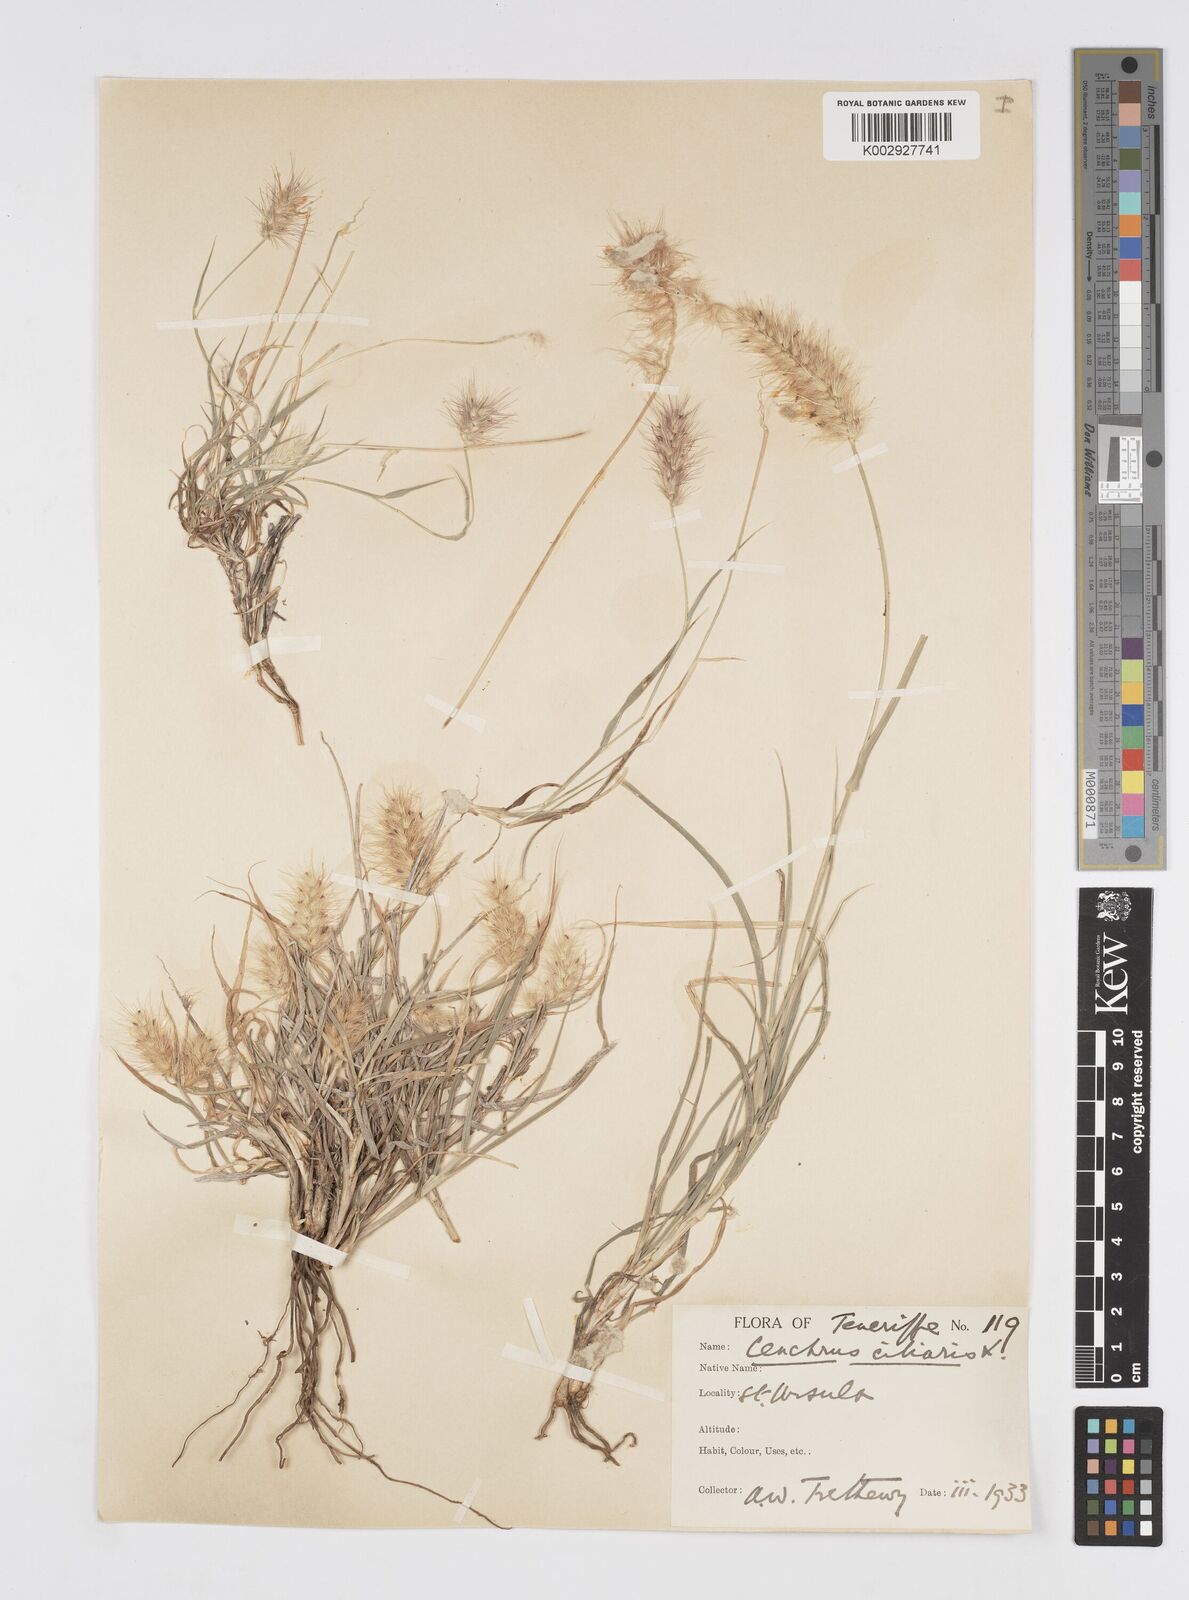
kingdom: Plantae
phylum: Tracheophyta
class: Liliopsida
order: Poales
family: Poaceae
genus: Cenchrus
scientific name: Cenchrus ciliaris
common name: Buffelgrass
